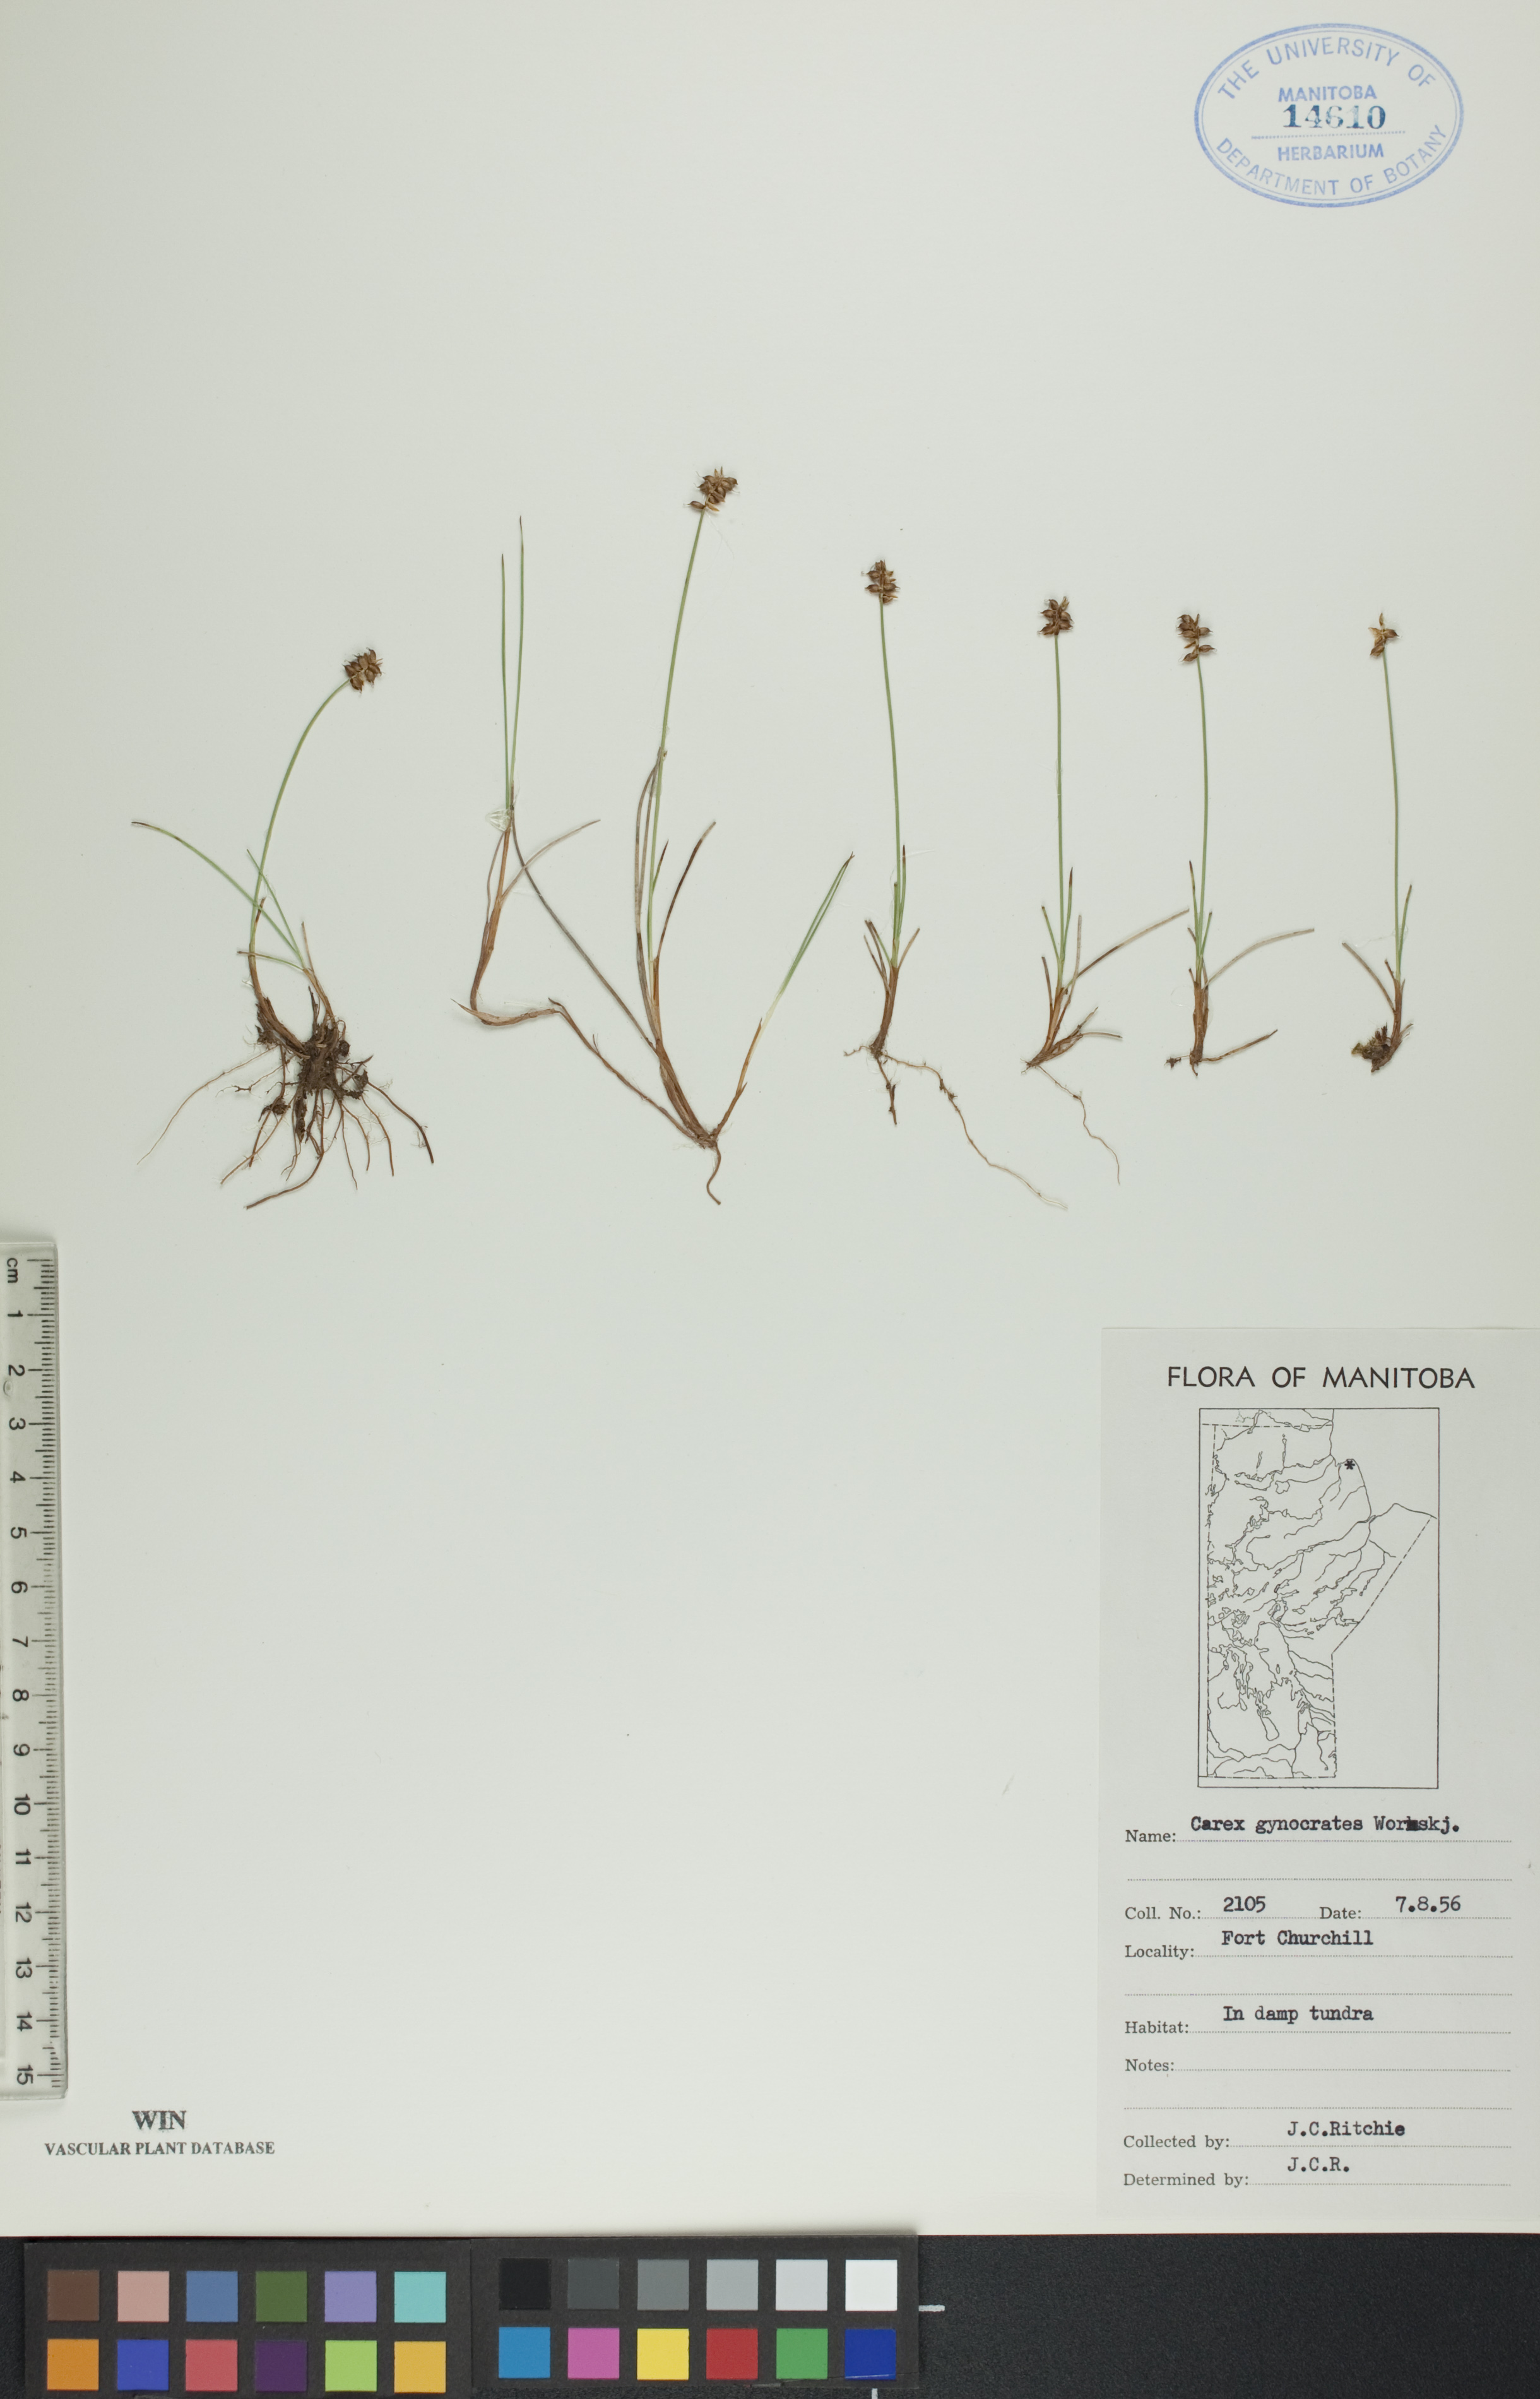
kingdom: Plantae
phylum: Tracheophyta
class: Liliopsida
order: Poales
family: Cyperaceae
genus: Carex
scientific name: Carex nardina
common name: Nard sedge
